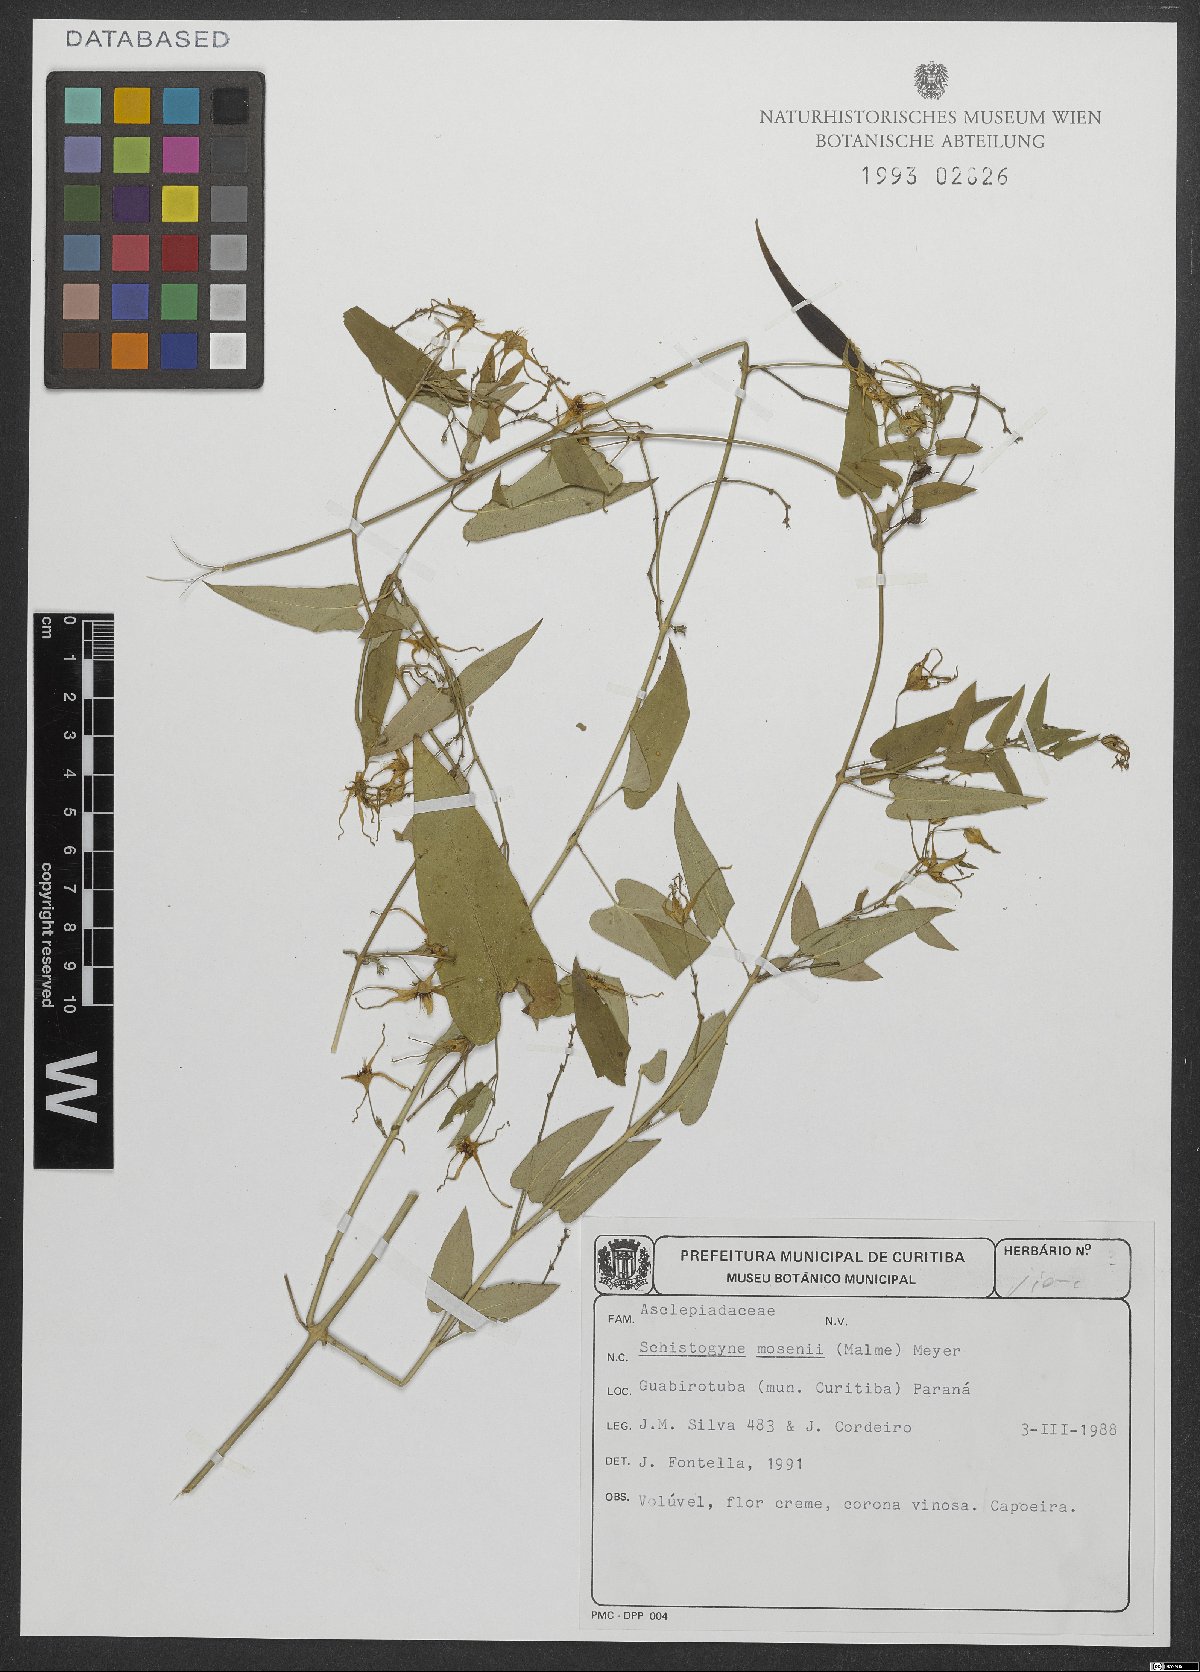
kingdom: Plantae
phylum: Tracheophyta
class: Magnoliopsida
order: Gentianales
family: Apocynaceae
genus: Oxypetalum
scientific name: Oxypetalum mosenii
